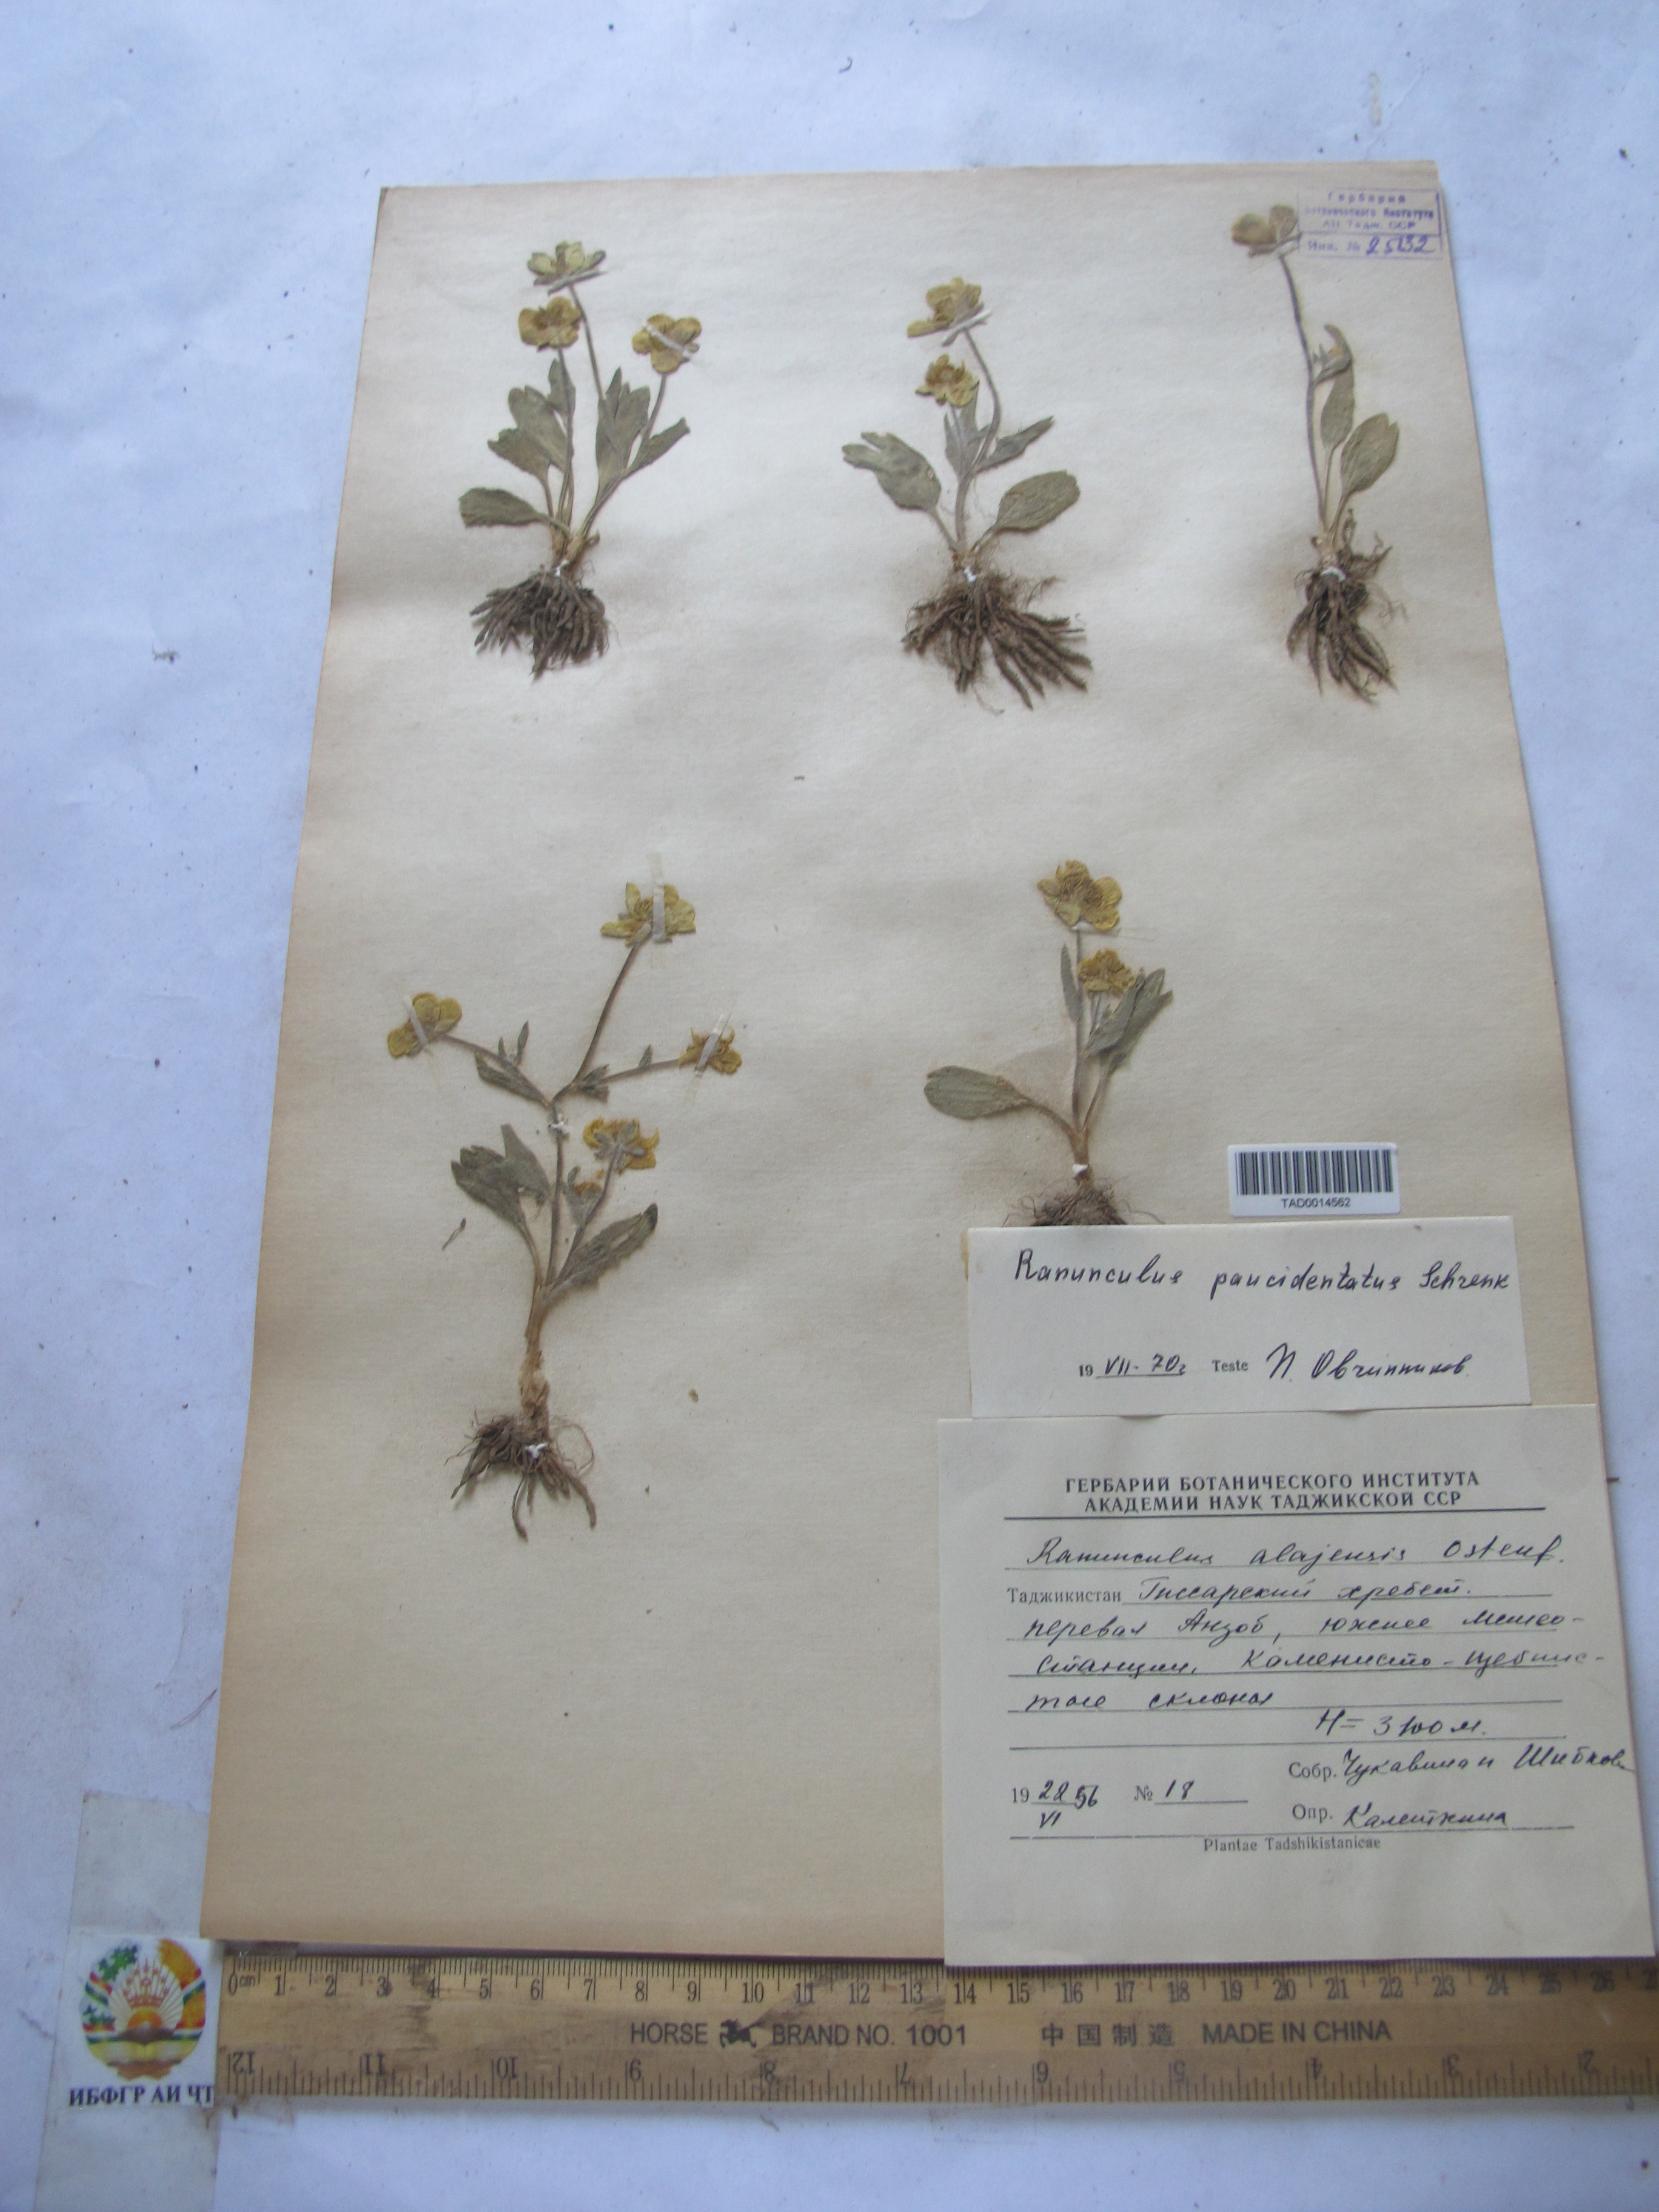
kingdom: Plantae
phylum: Tracheophyta
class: Magnoliopsida
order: Ranunculales
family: Ranunculaceae
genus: Ranunculus
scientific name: Ranunculus alaiensis
